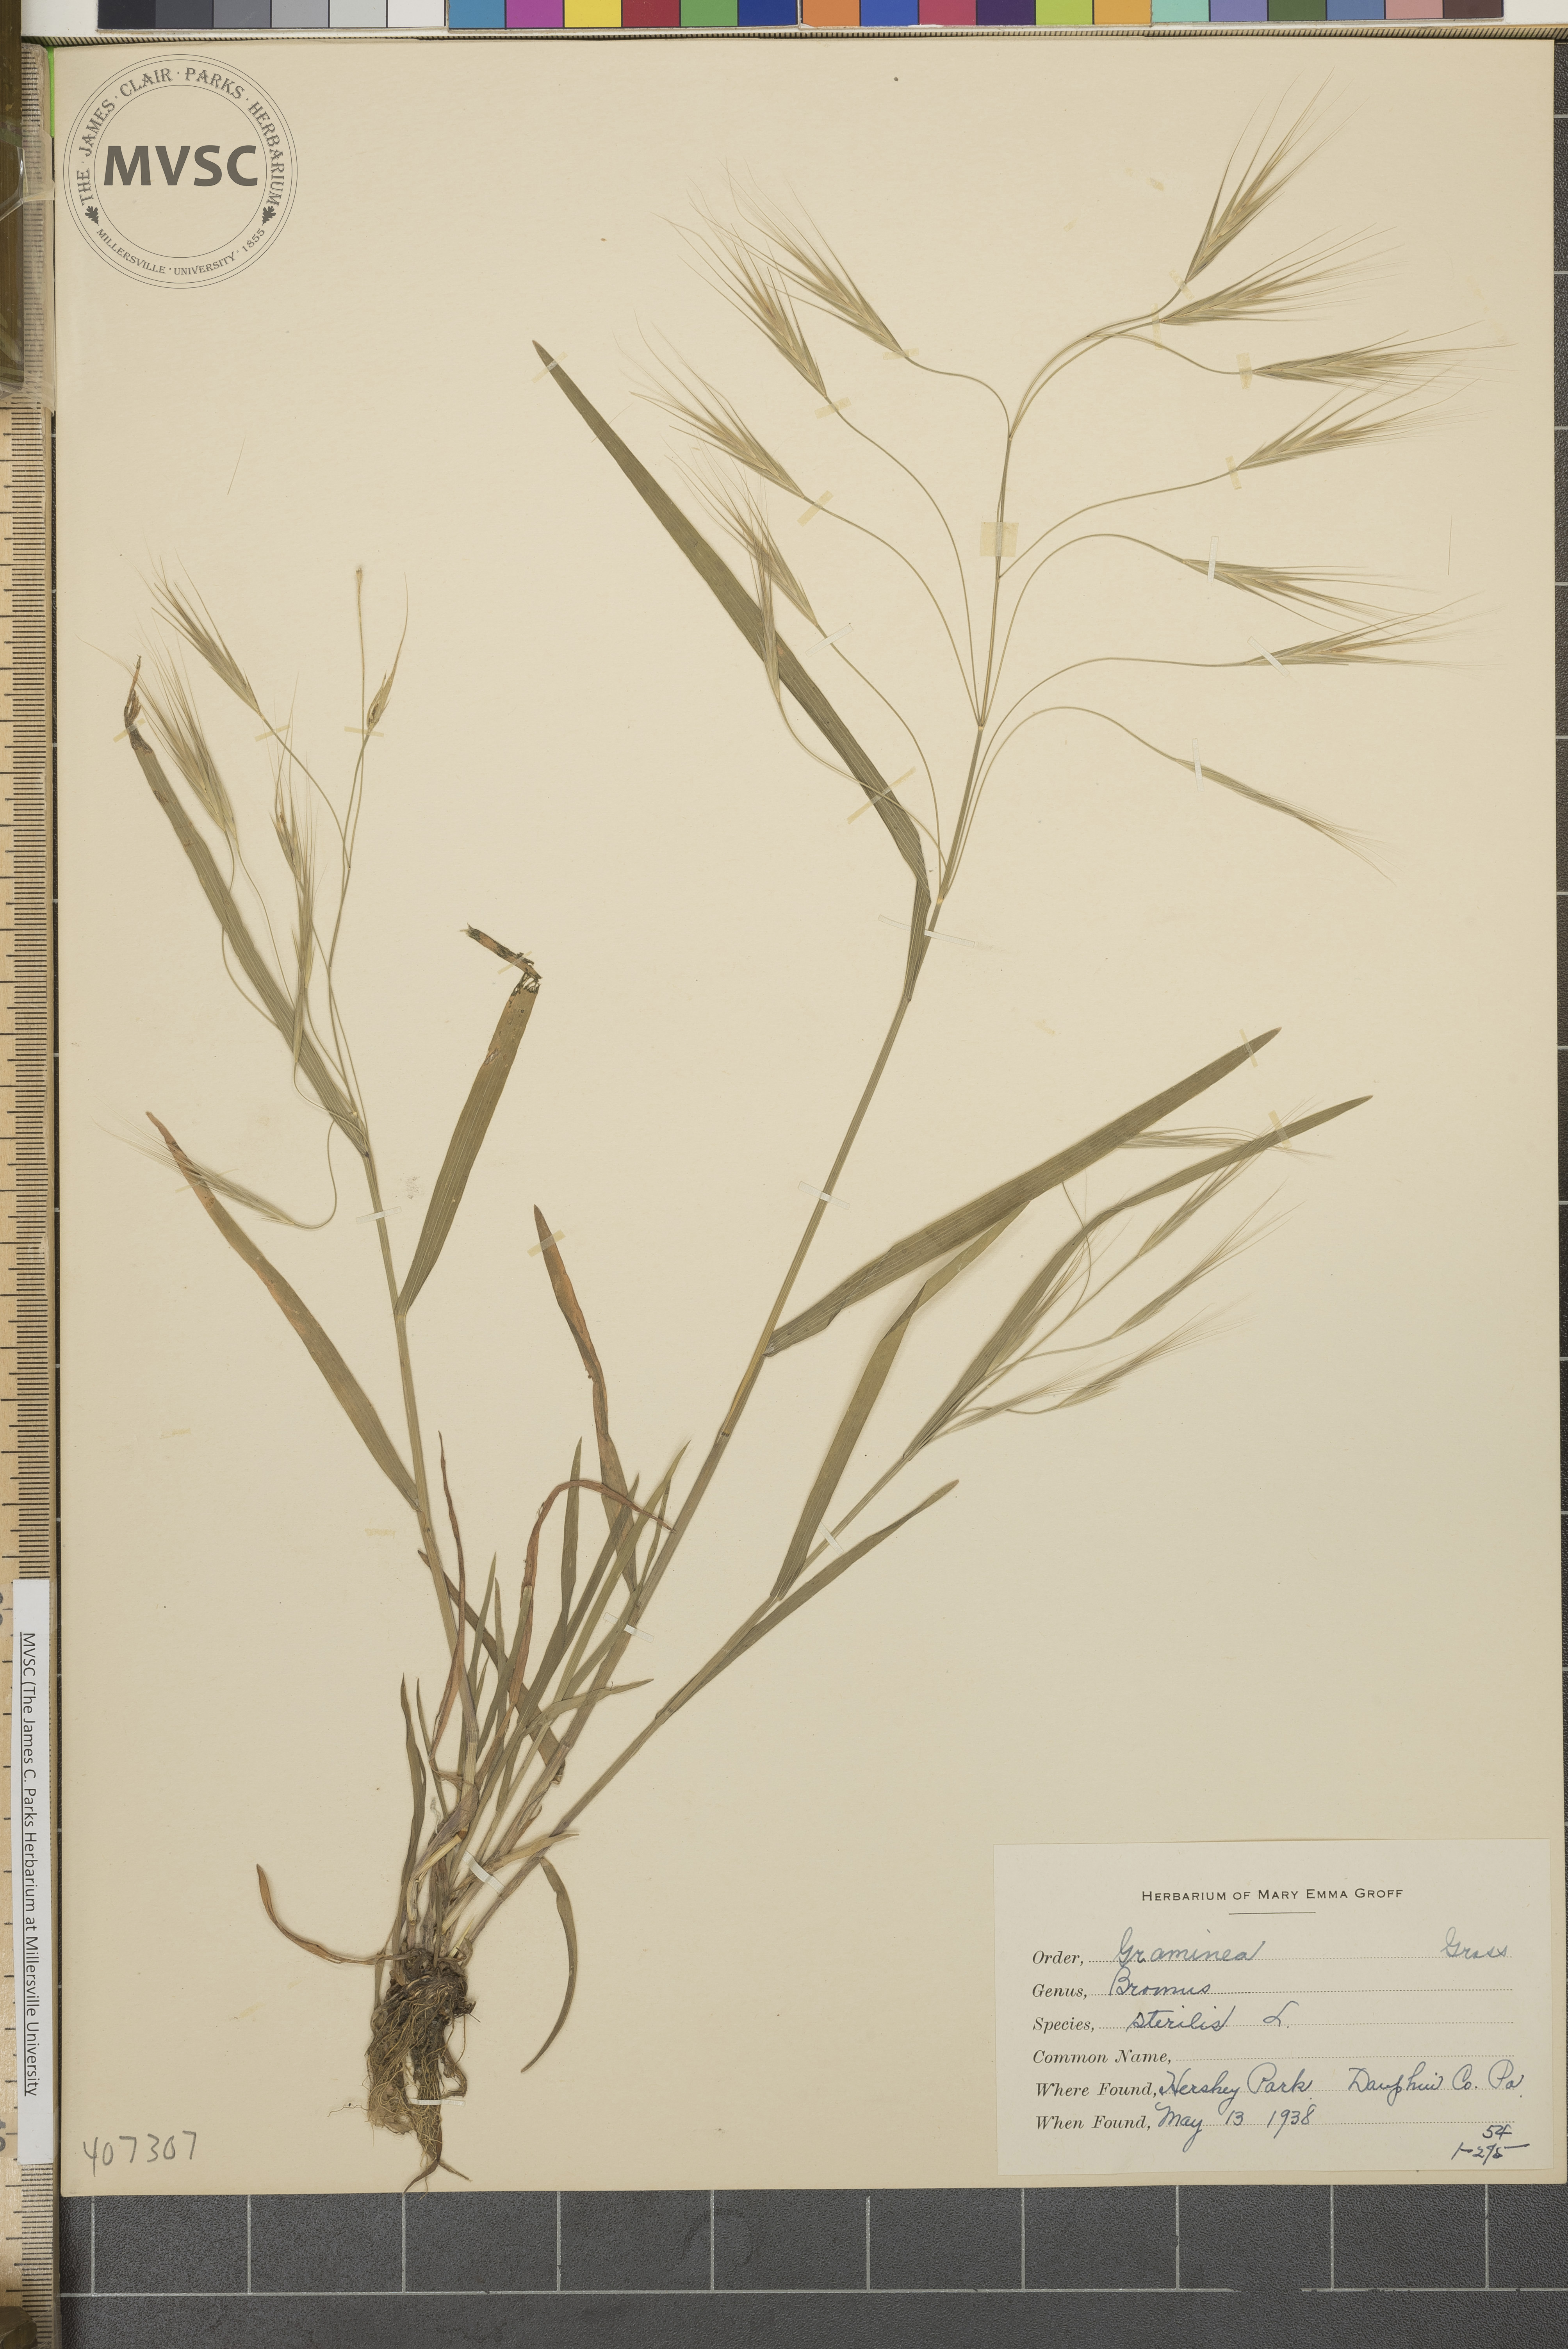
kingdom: Plantae
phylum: Tracheophyta
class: Liliopsida
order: Poales
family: Poaceae
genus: Bromus
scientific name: Bromus sterilis
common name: Poverty brome
